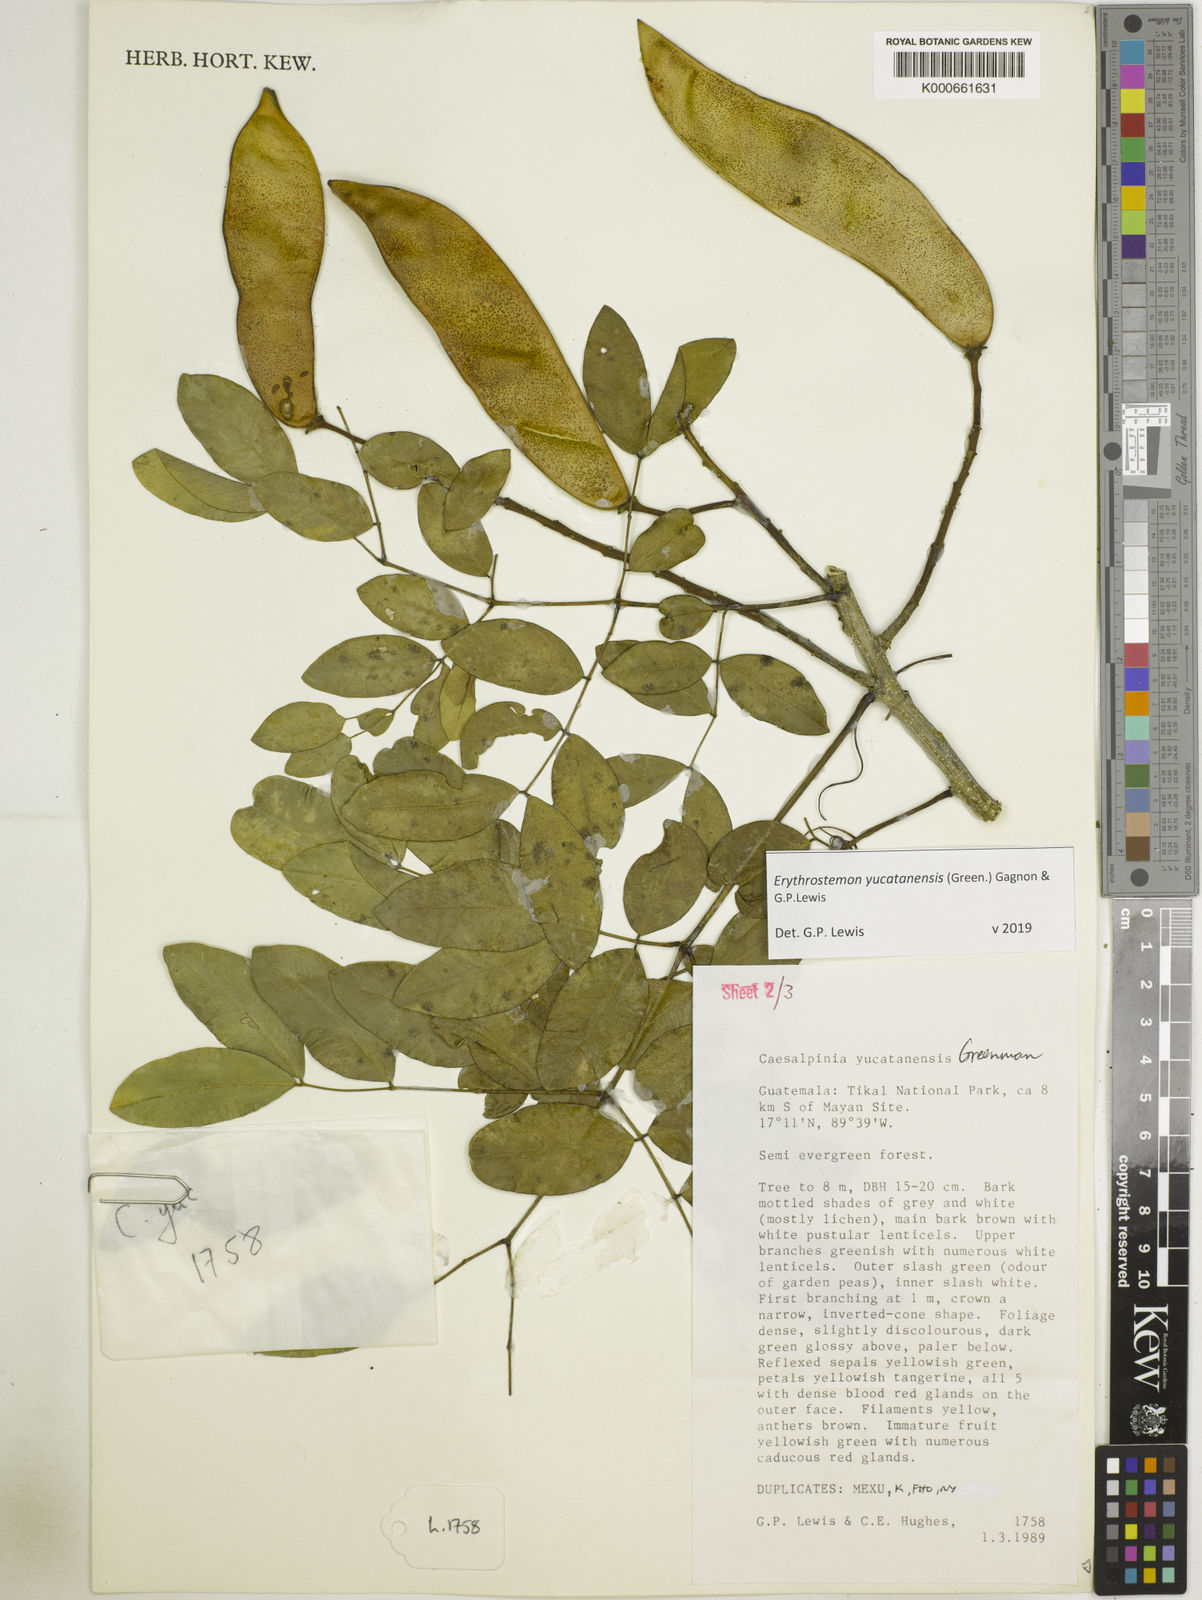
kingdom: Plantae
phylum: Tracheophyta
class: Magnoliopsida
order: Fabales
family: Fabaceae
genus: Caesalpinia
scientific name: Caesalpinia
